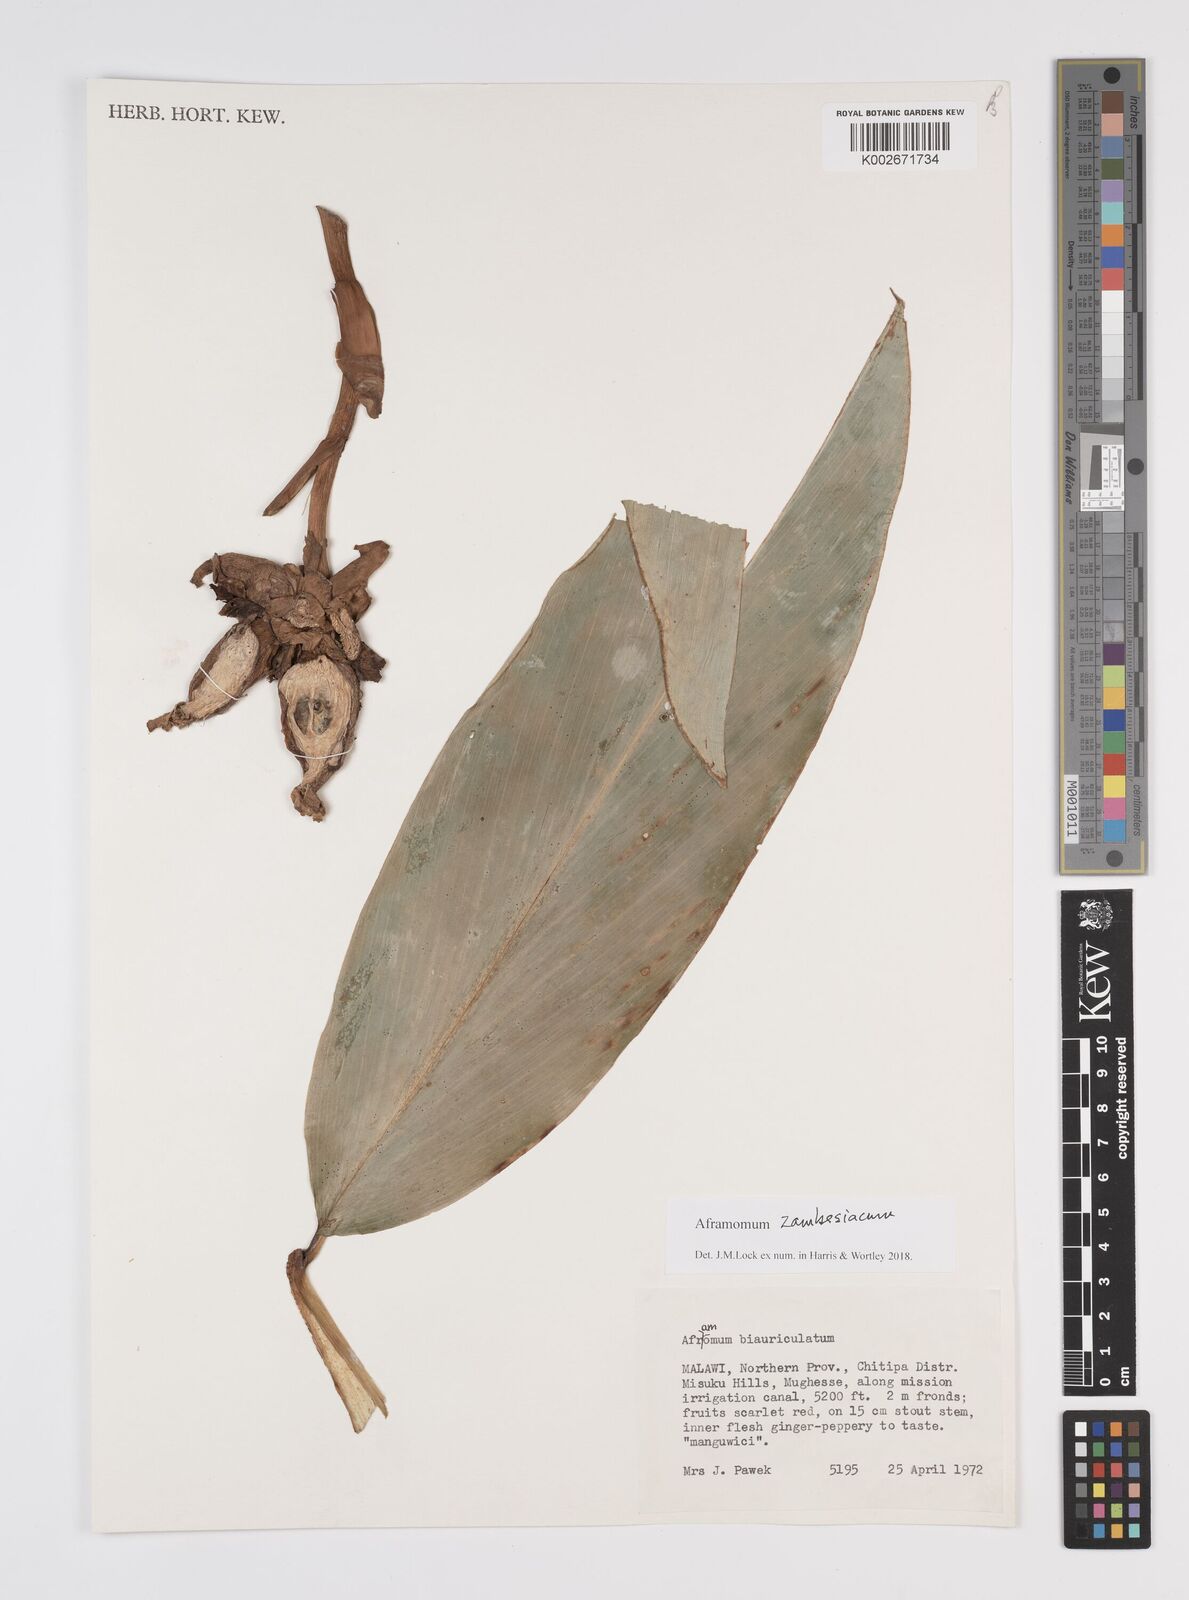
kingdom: Plantae
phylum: Tracheophyta
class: Liliopsida
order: Zingiberales
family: Zingiberaceae
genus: Aframomum
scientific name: Aframomum zambesiacum
